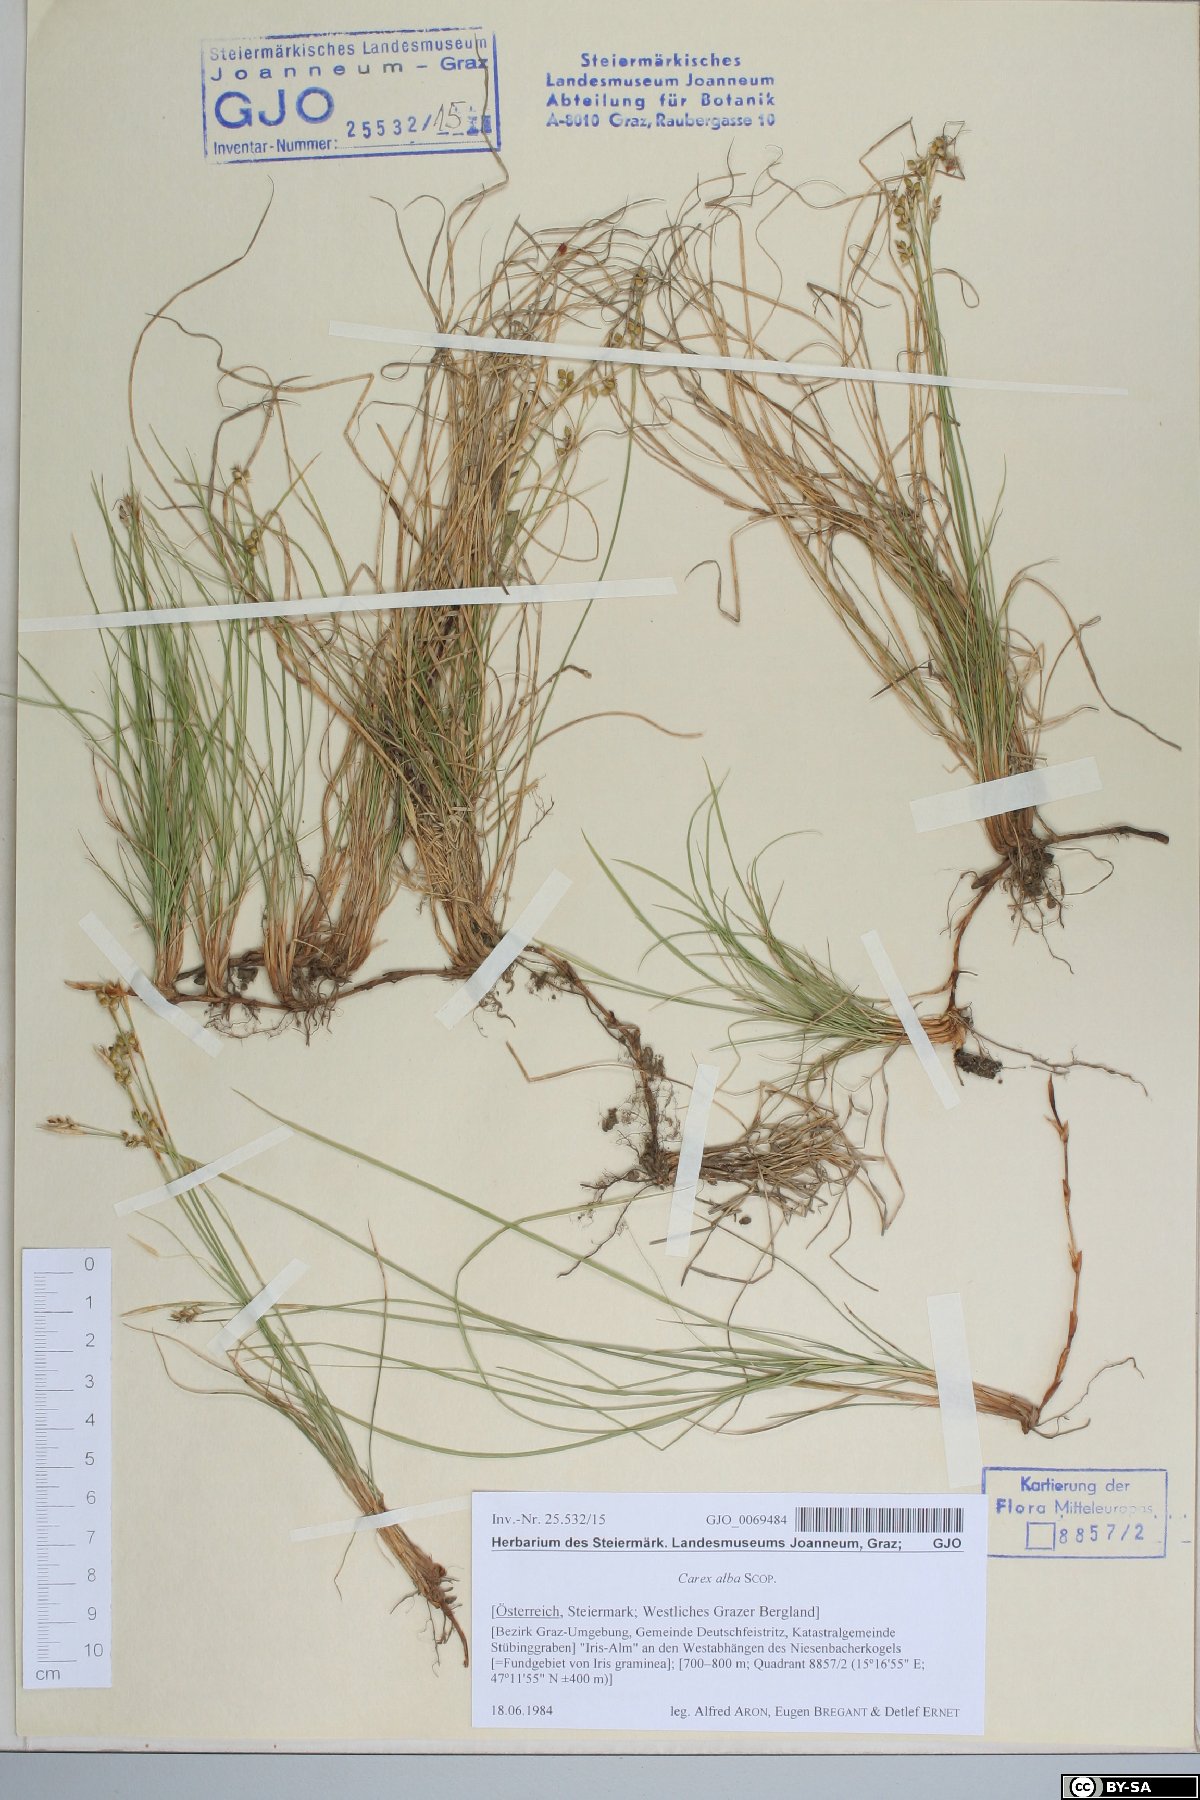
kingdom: Plantae
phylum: Tracheophyta
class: Liliopsida
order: Poales
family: Cyperaceae
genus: Carex
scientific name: Carex alba
